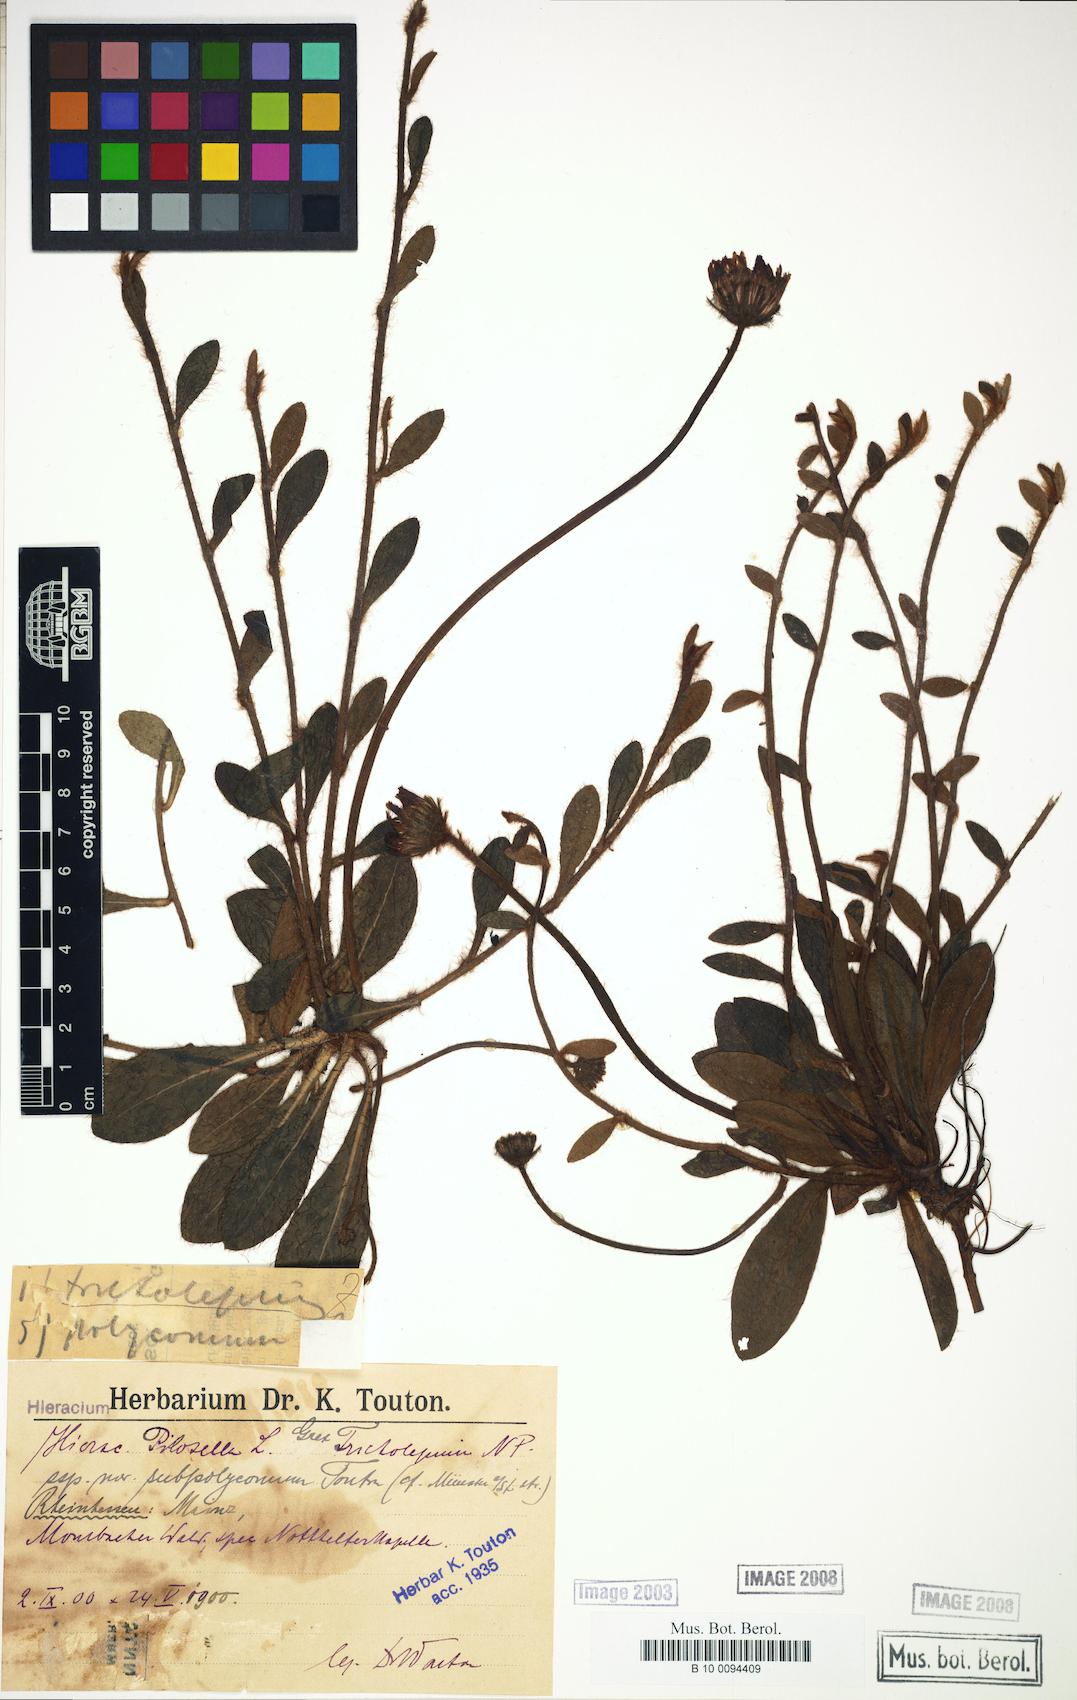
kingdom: Plantae
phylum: Tracheophyta
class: Magnoliopsida
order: Asterales
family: Asteraceae
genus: Pilosella
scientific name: Pilosella officinarum
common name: Mouse-ear hawkweed
